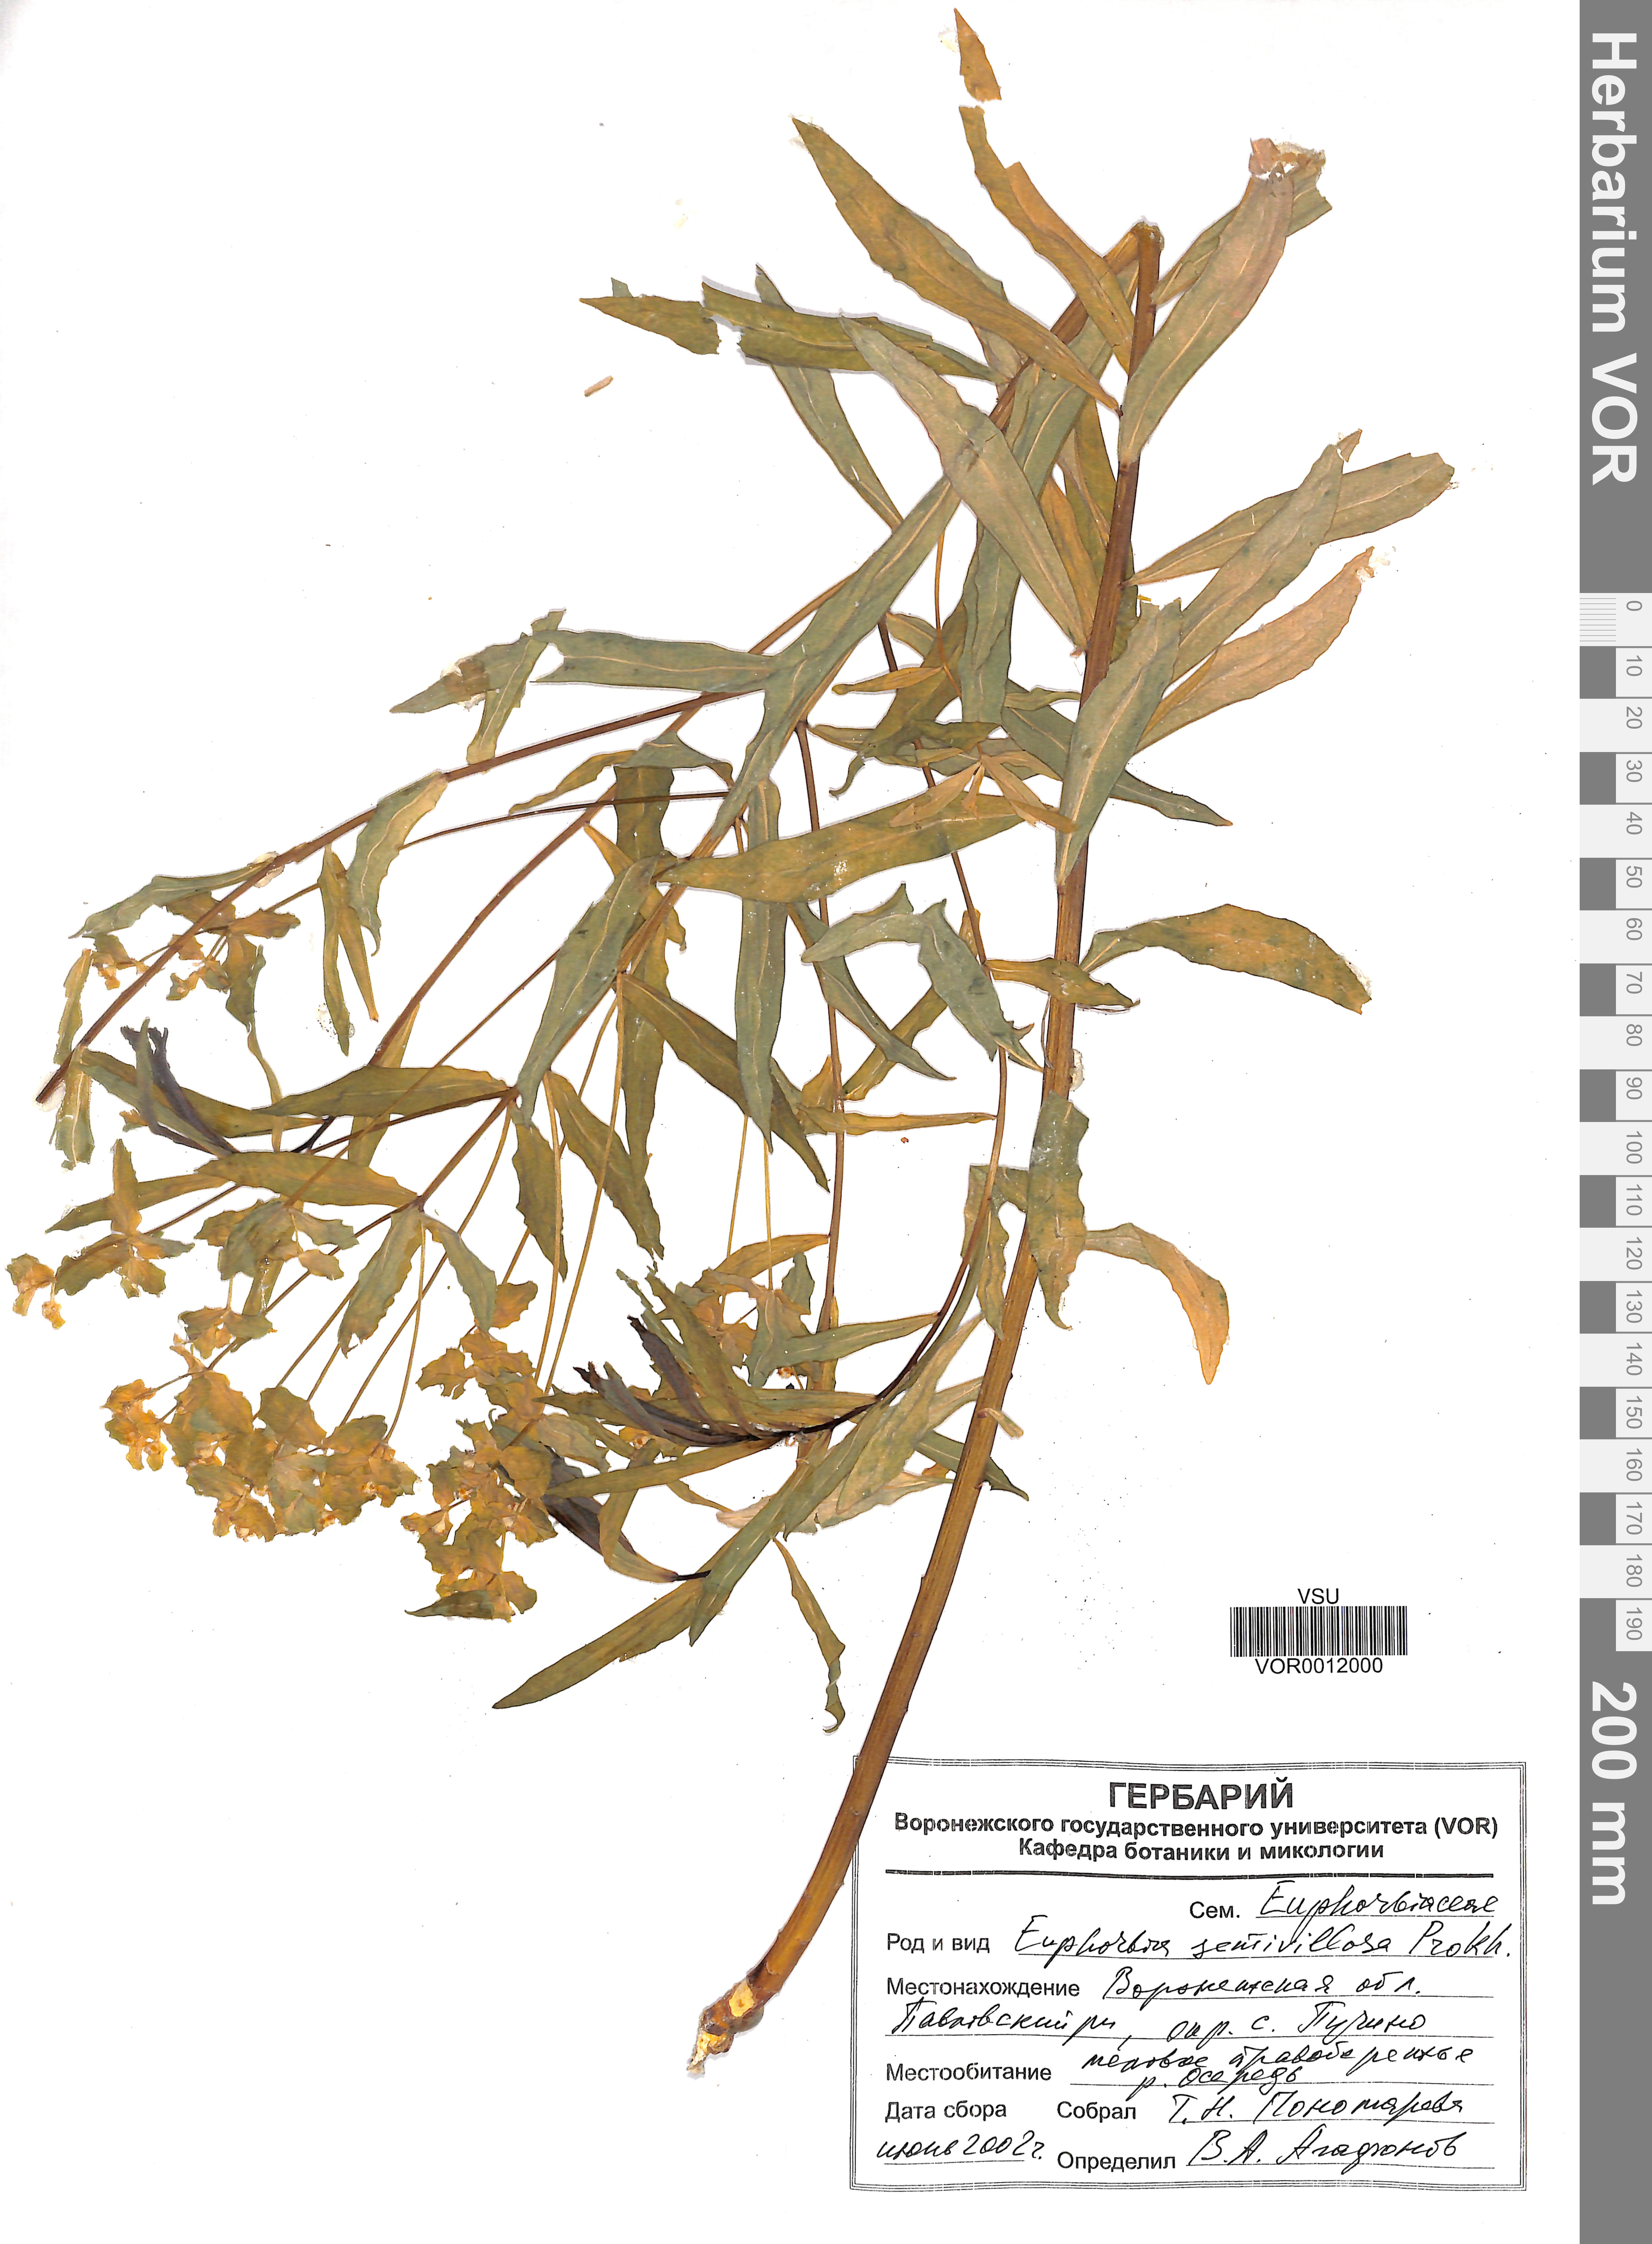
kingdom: Plantae
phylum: Tracheophyta
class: Magnoliopsida
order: Malpighiales
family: Euphorbiaceae
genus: Euphorbia
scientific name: Euphorbia semivillosa
